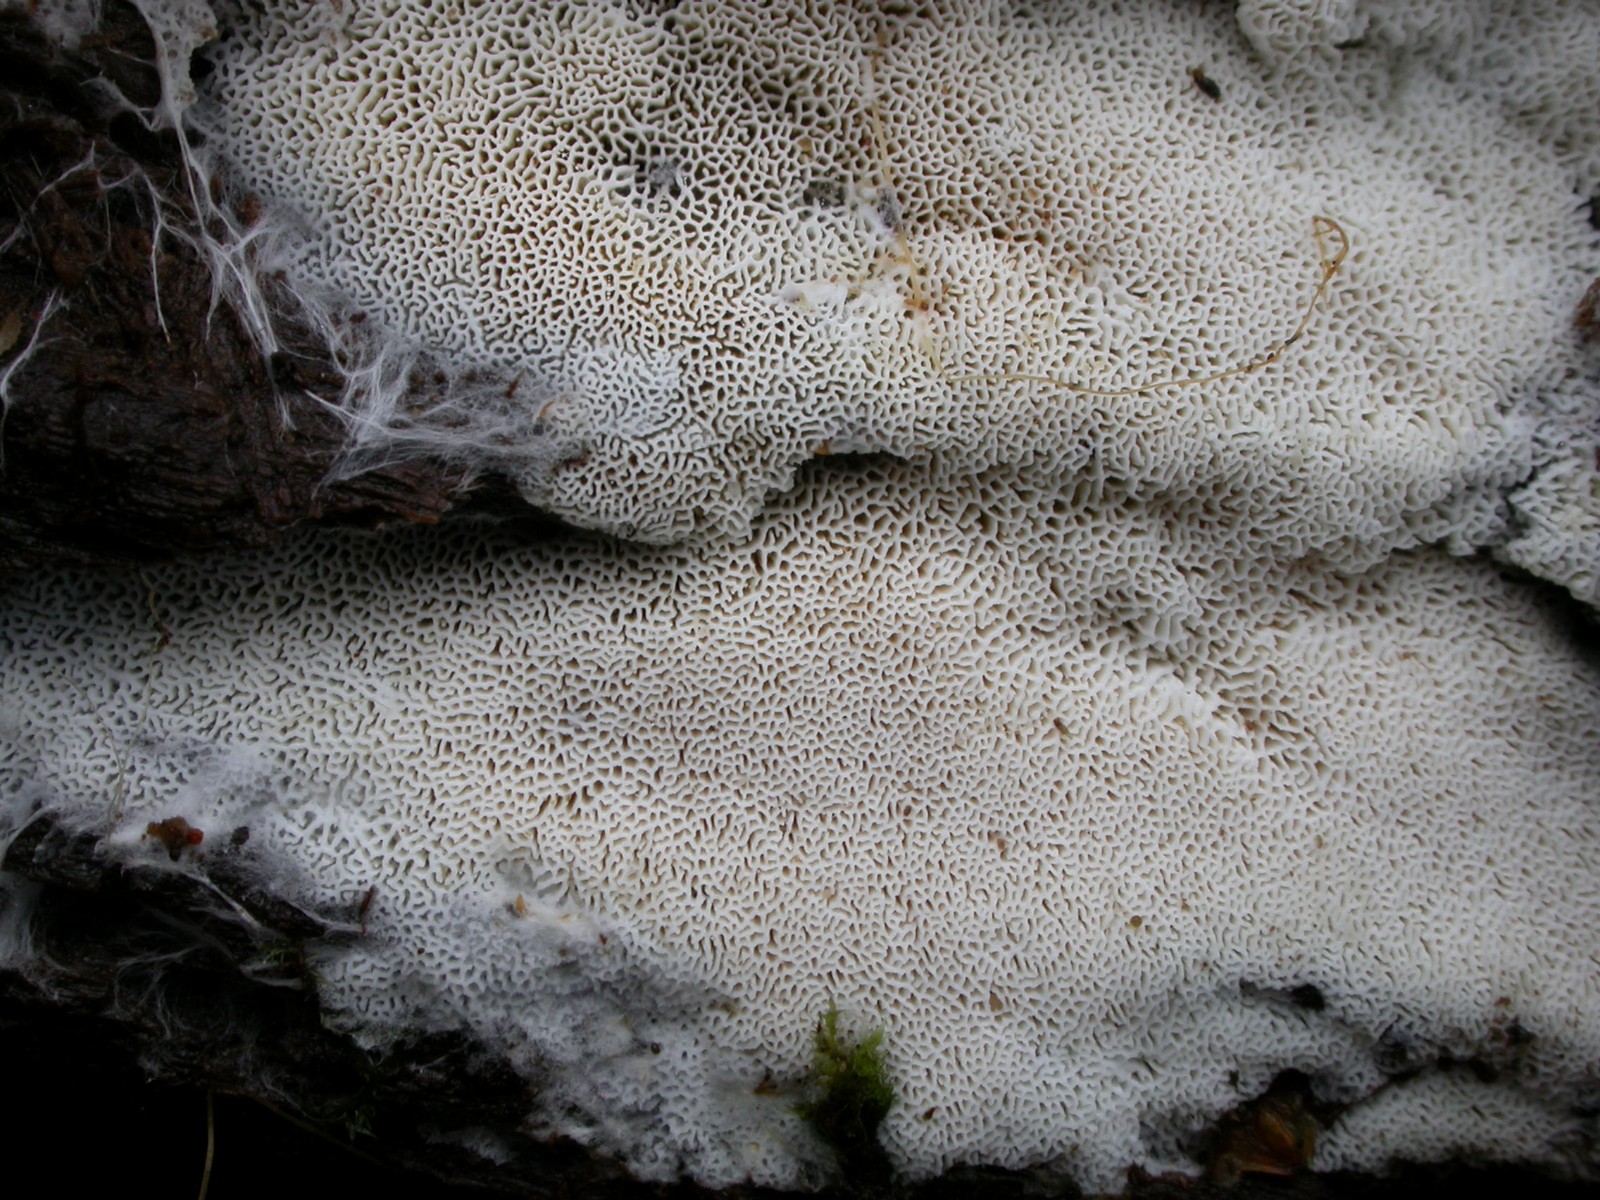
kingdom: Fungi
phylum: Basidiomycota
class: Agaricomycetes
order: Hymenochaetales
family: Schizoporaceae
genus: Xylodon
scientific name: Xylodon subtropicus
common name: labyrint-tandsvamp
